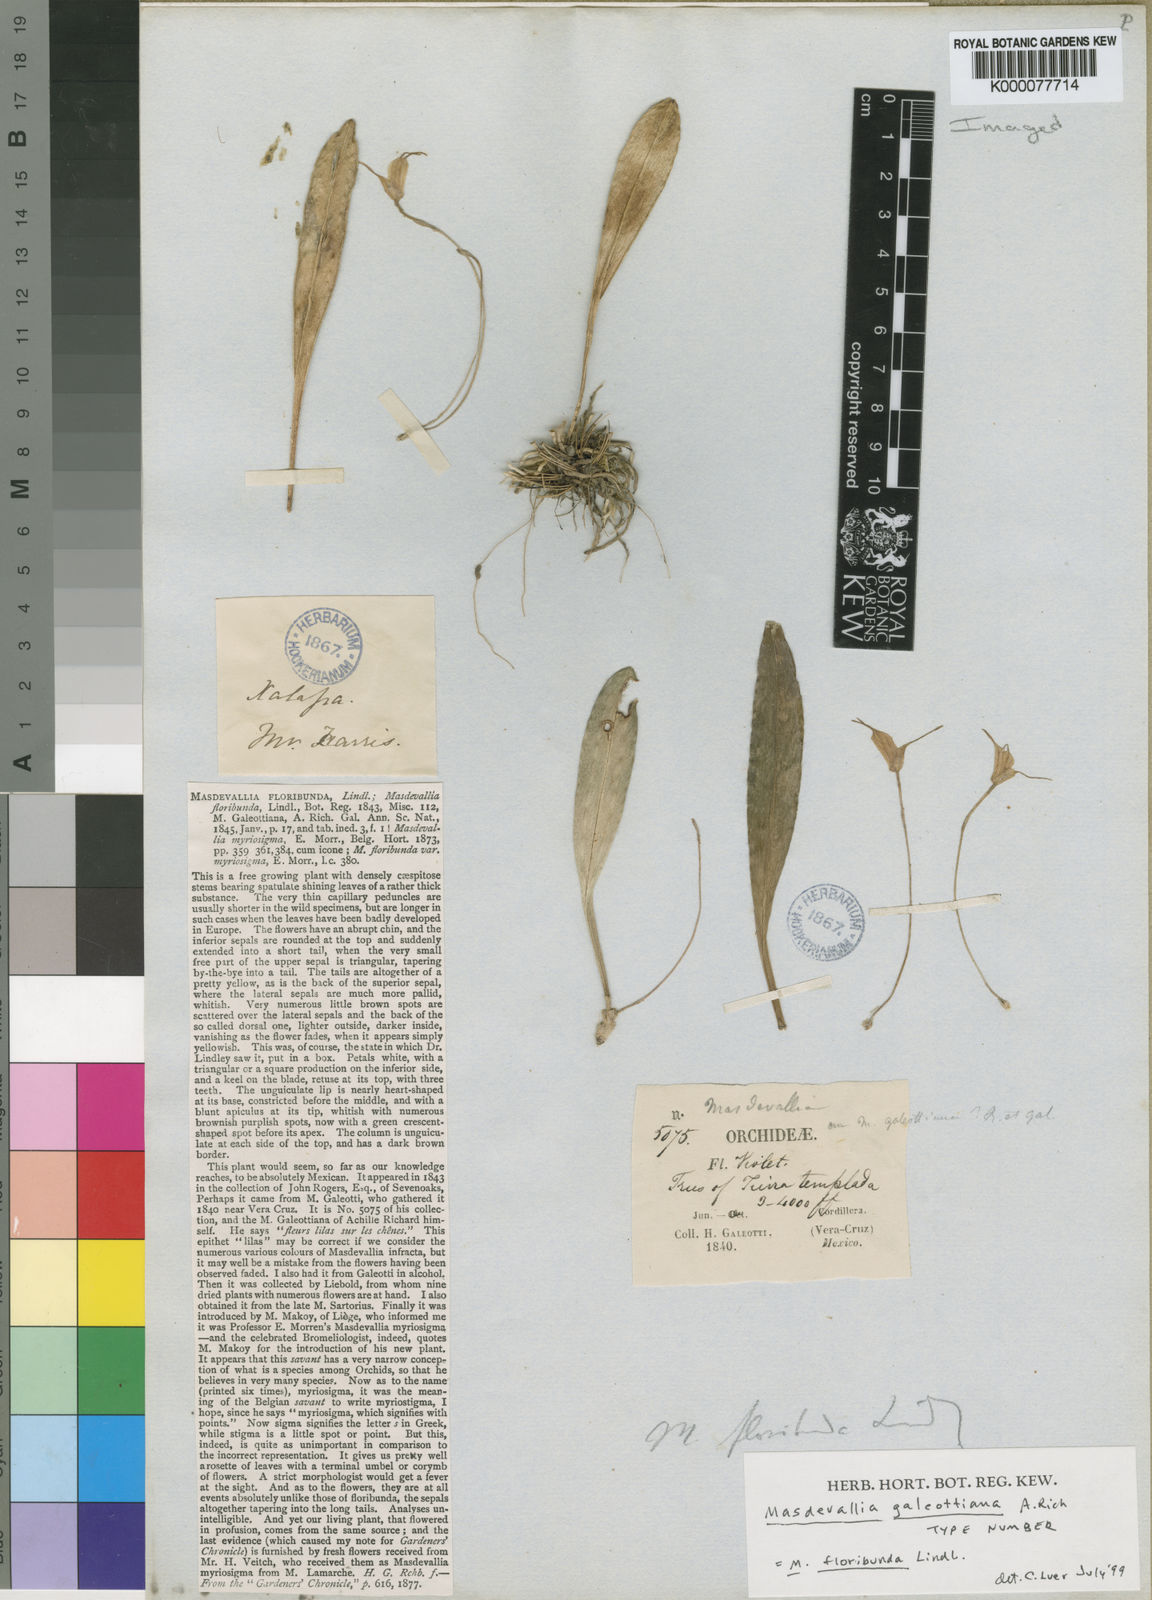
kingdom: Plantae
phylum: Tracheophyta
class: Liliopsida
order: Asparagales
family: Orchidaceae
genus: Masdevallia
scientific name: Masdevallia floribunda
